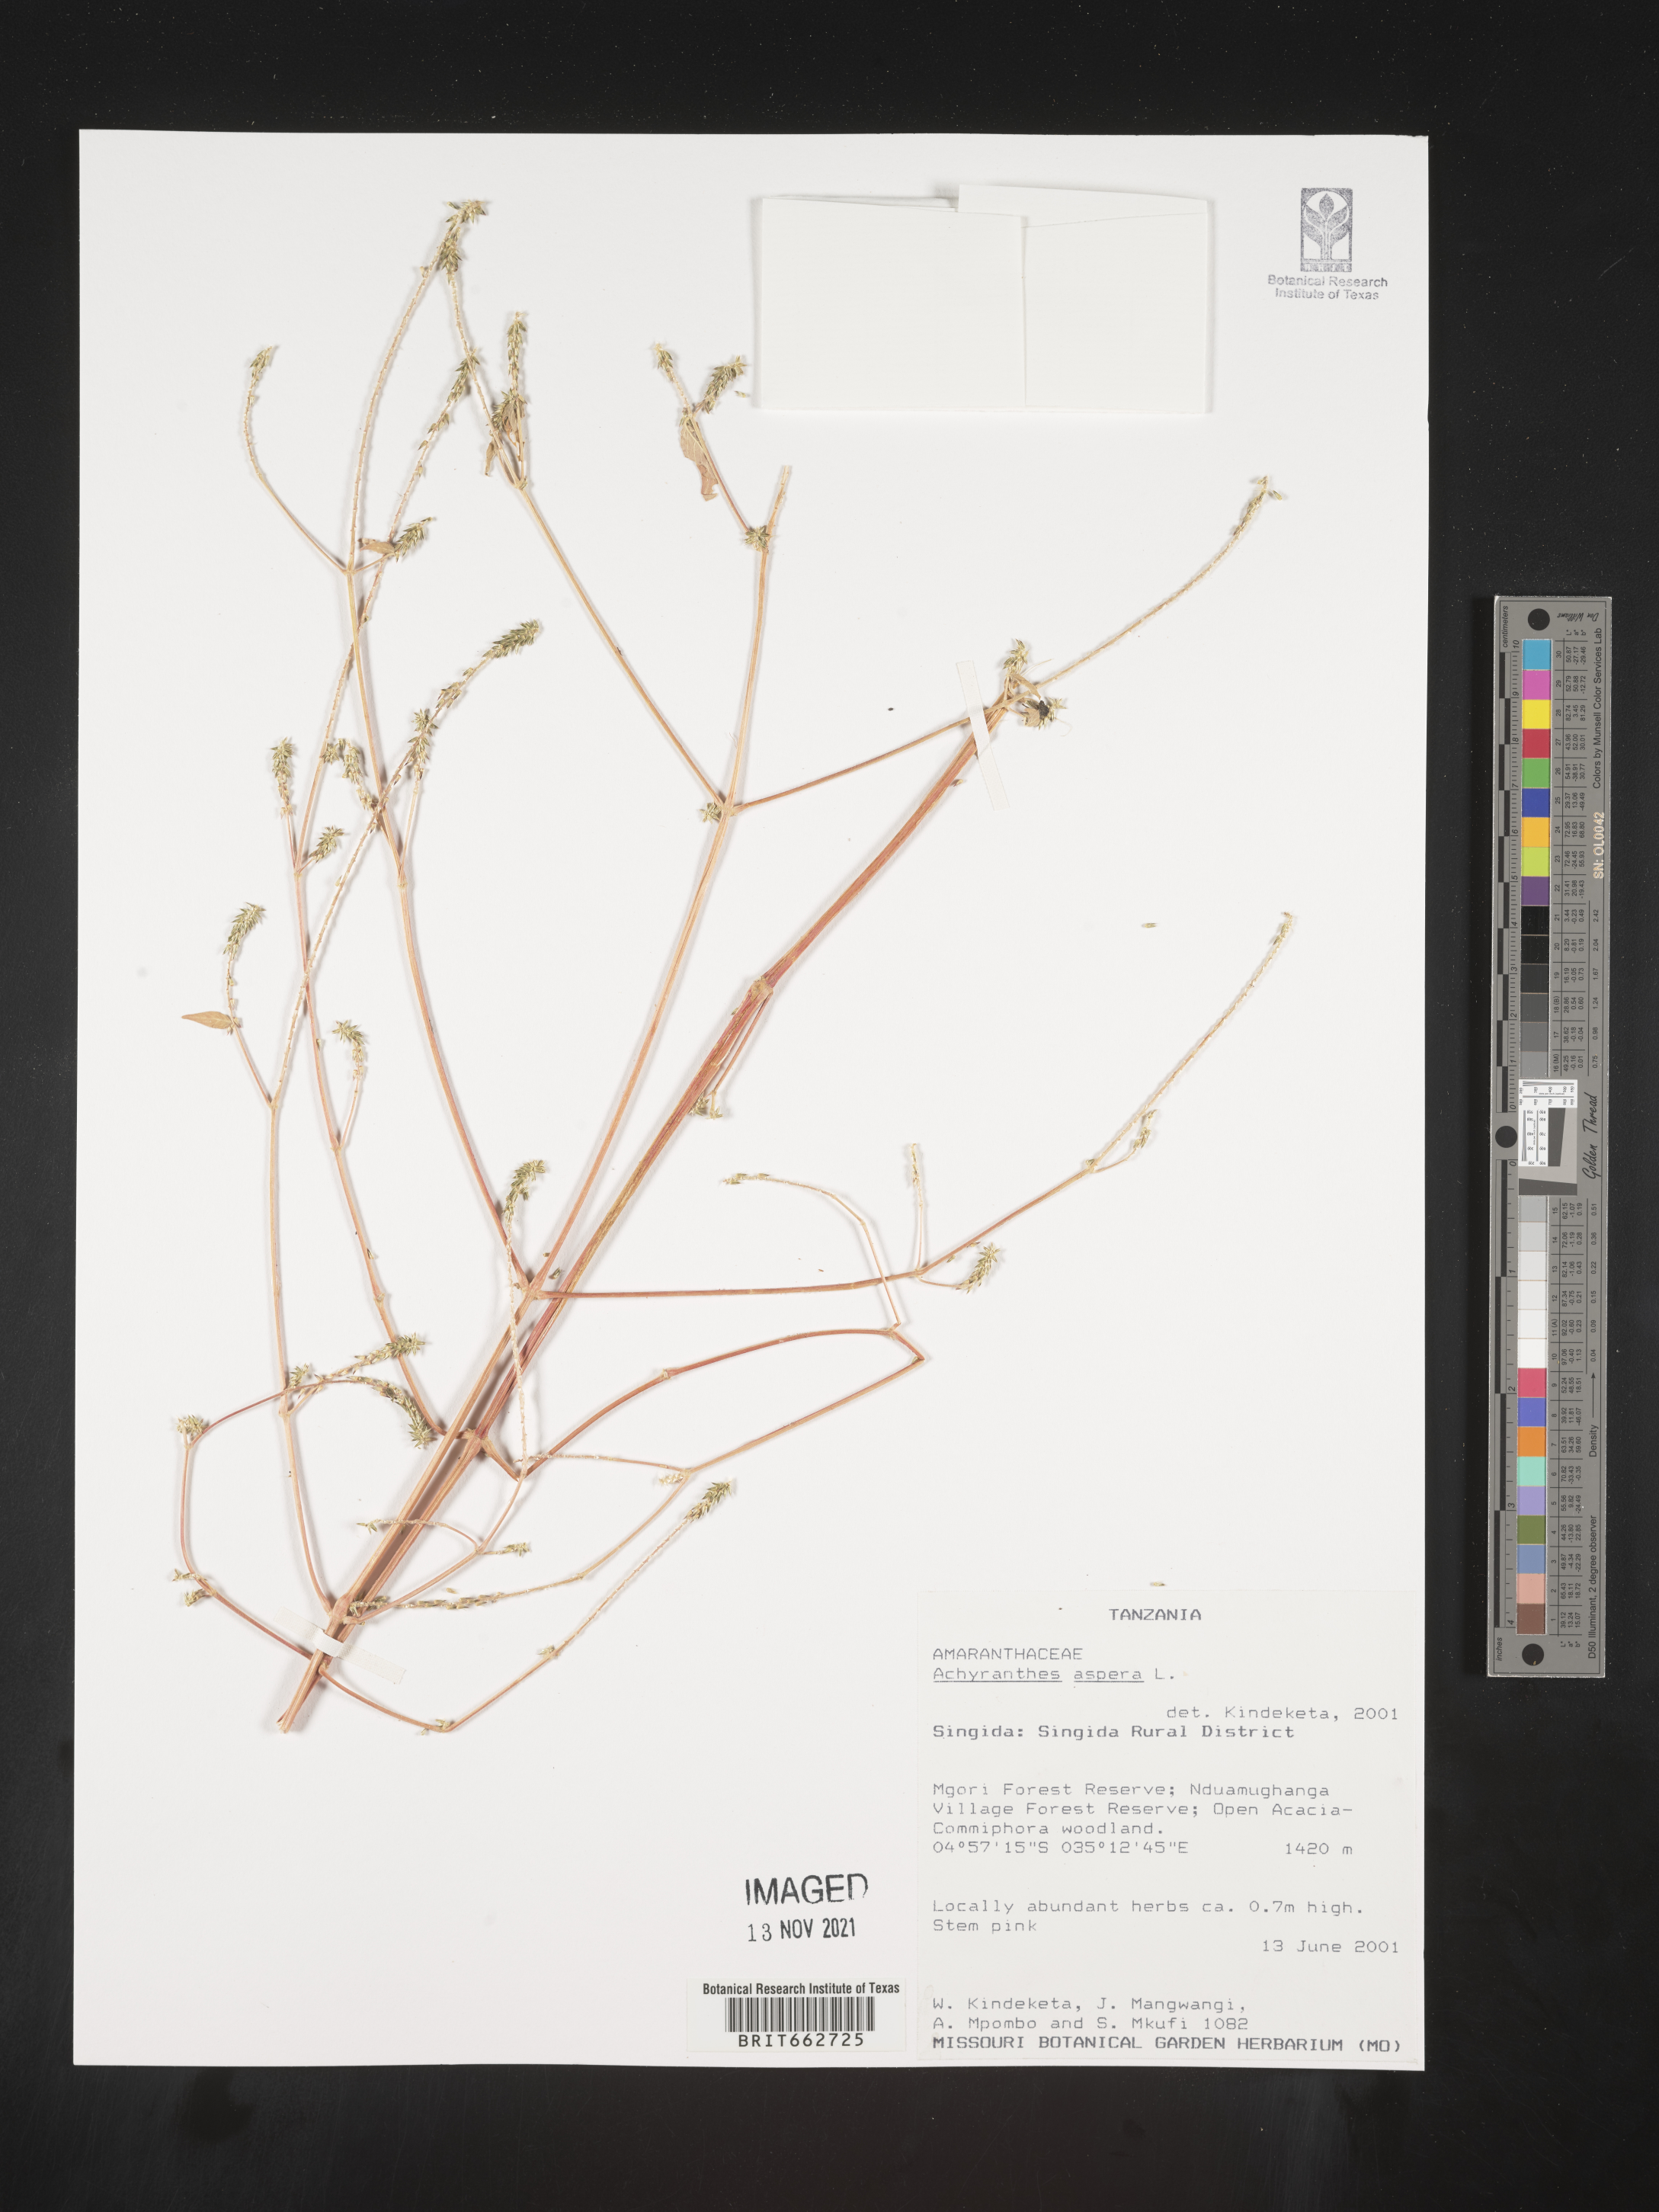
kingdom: Plantae
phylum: Tracheophyta
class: Magnoliopsida
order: Caryophyllales
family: Amaranthaceae
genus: Achyranthes
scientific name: Achyranthes
